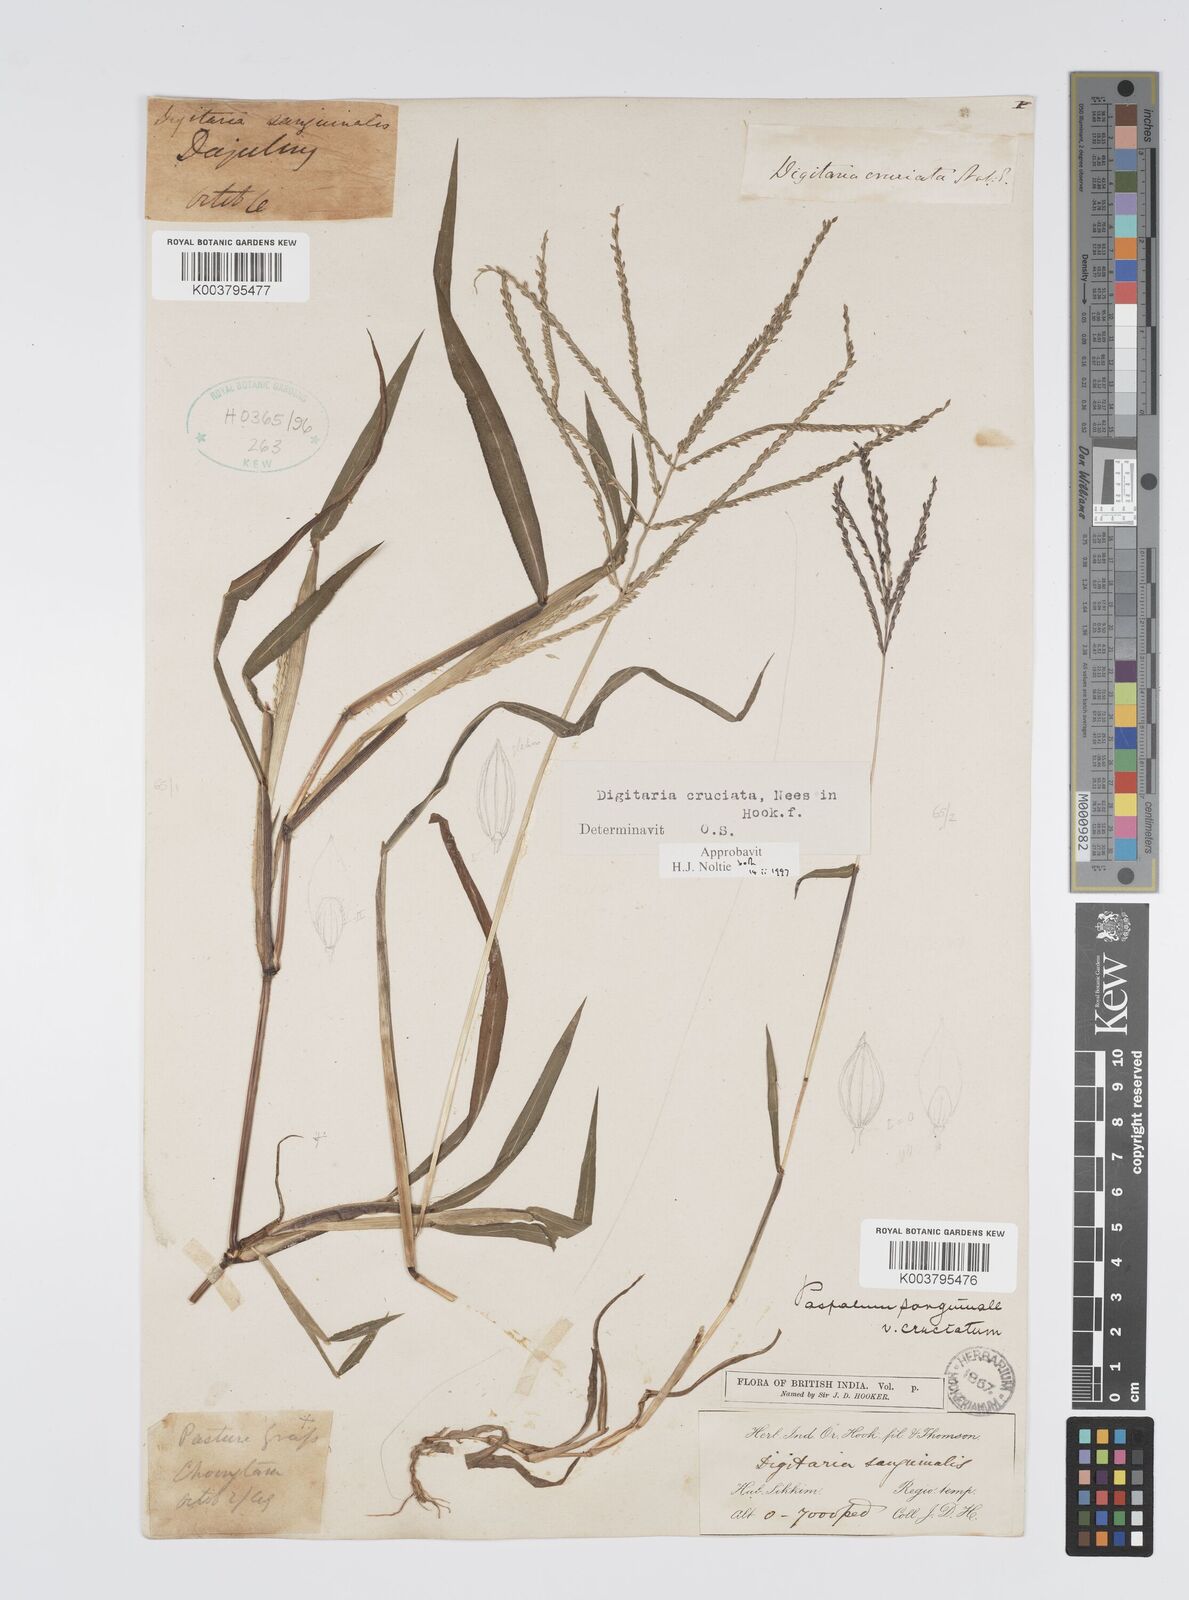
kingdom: Plantae
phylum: Tracheophyta
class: Liliopsida
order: Poales
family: Poaceae
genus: Digitaria
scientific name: Digitaria cruciata
